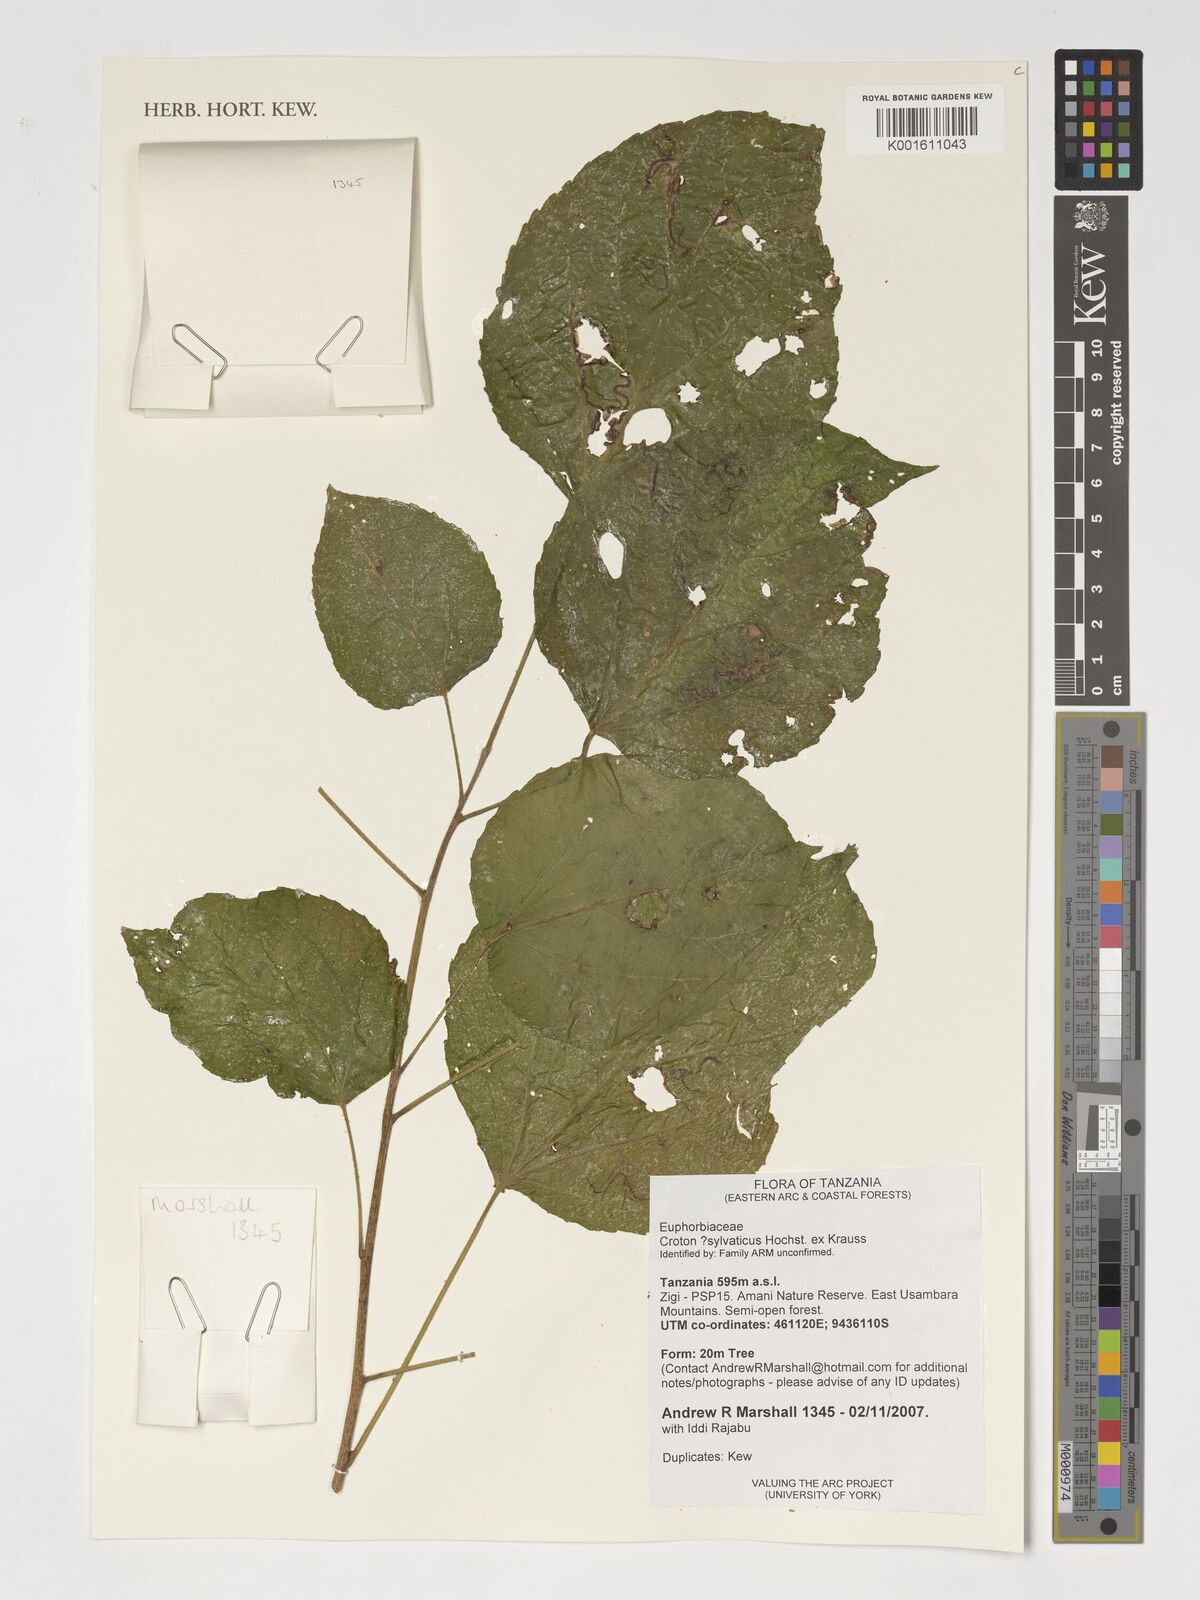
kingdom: Plantae
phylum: Tracheophyta
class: Magnoliopsida
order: Malpighiales
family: Euphorbiaceae
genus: Croton
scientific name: Croton reflexifolius
